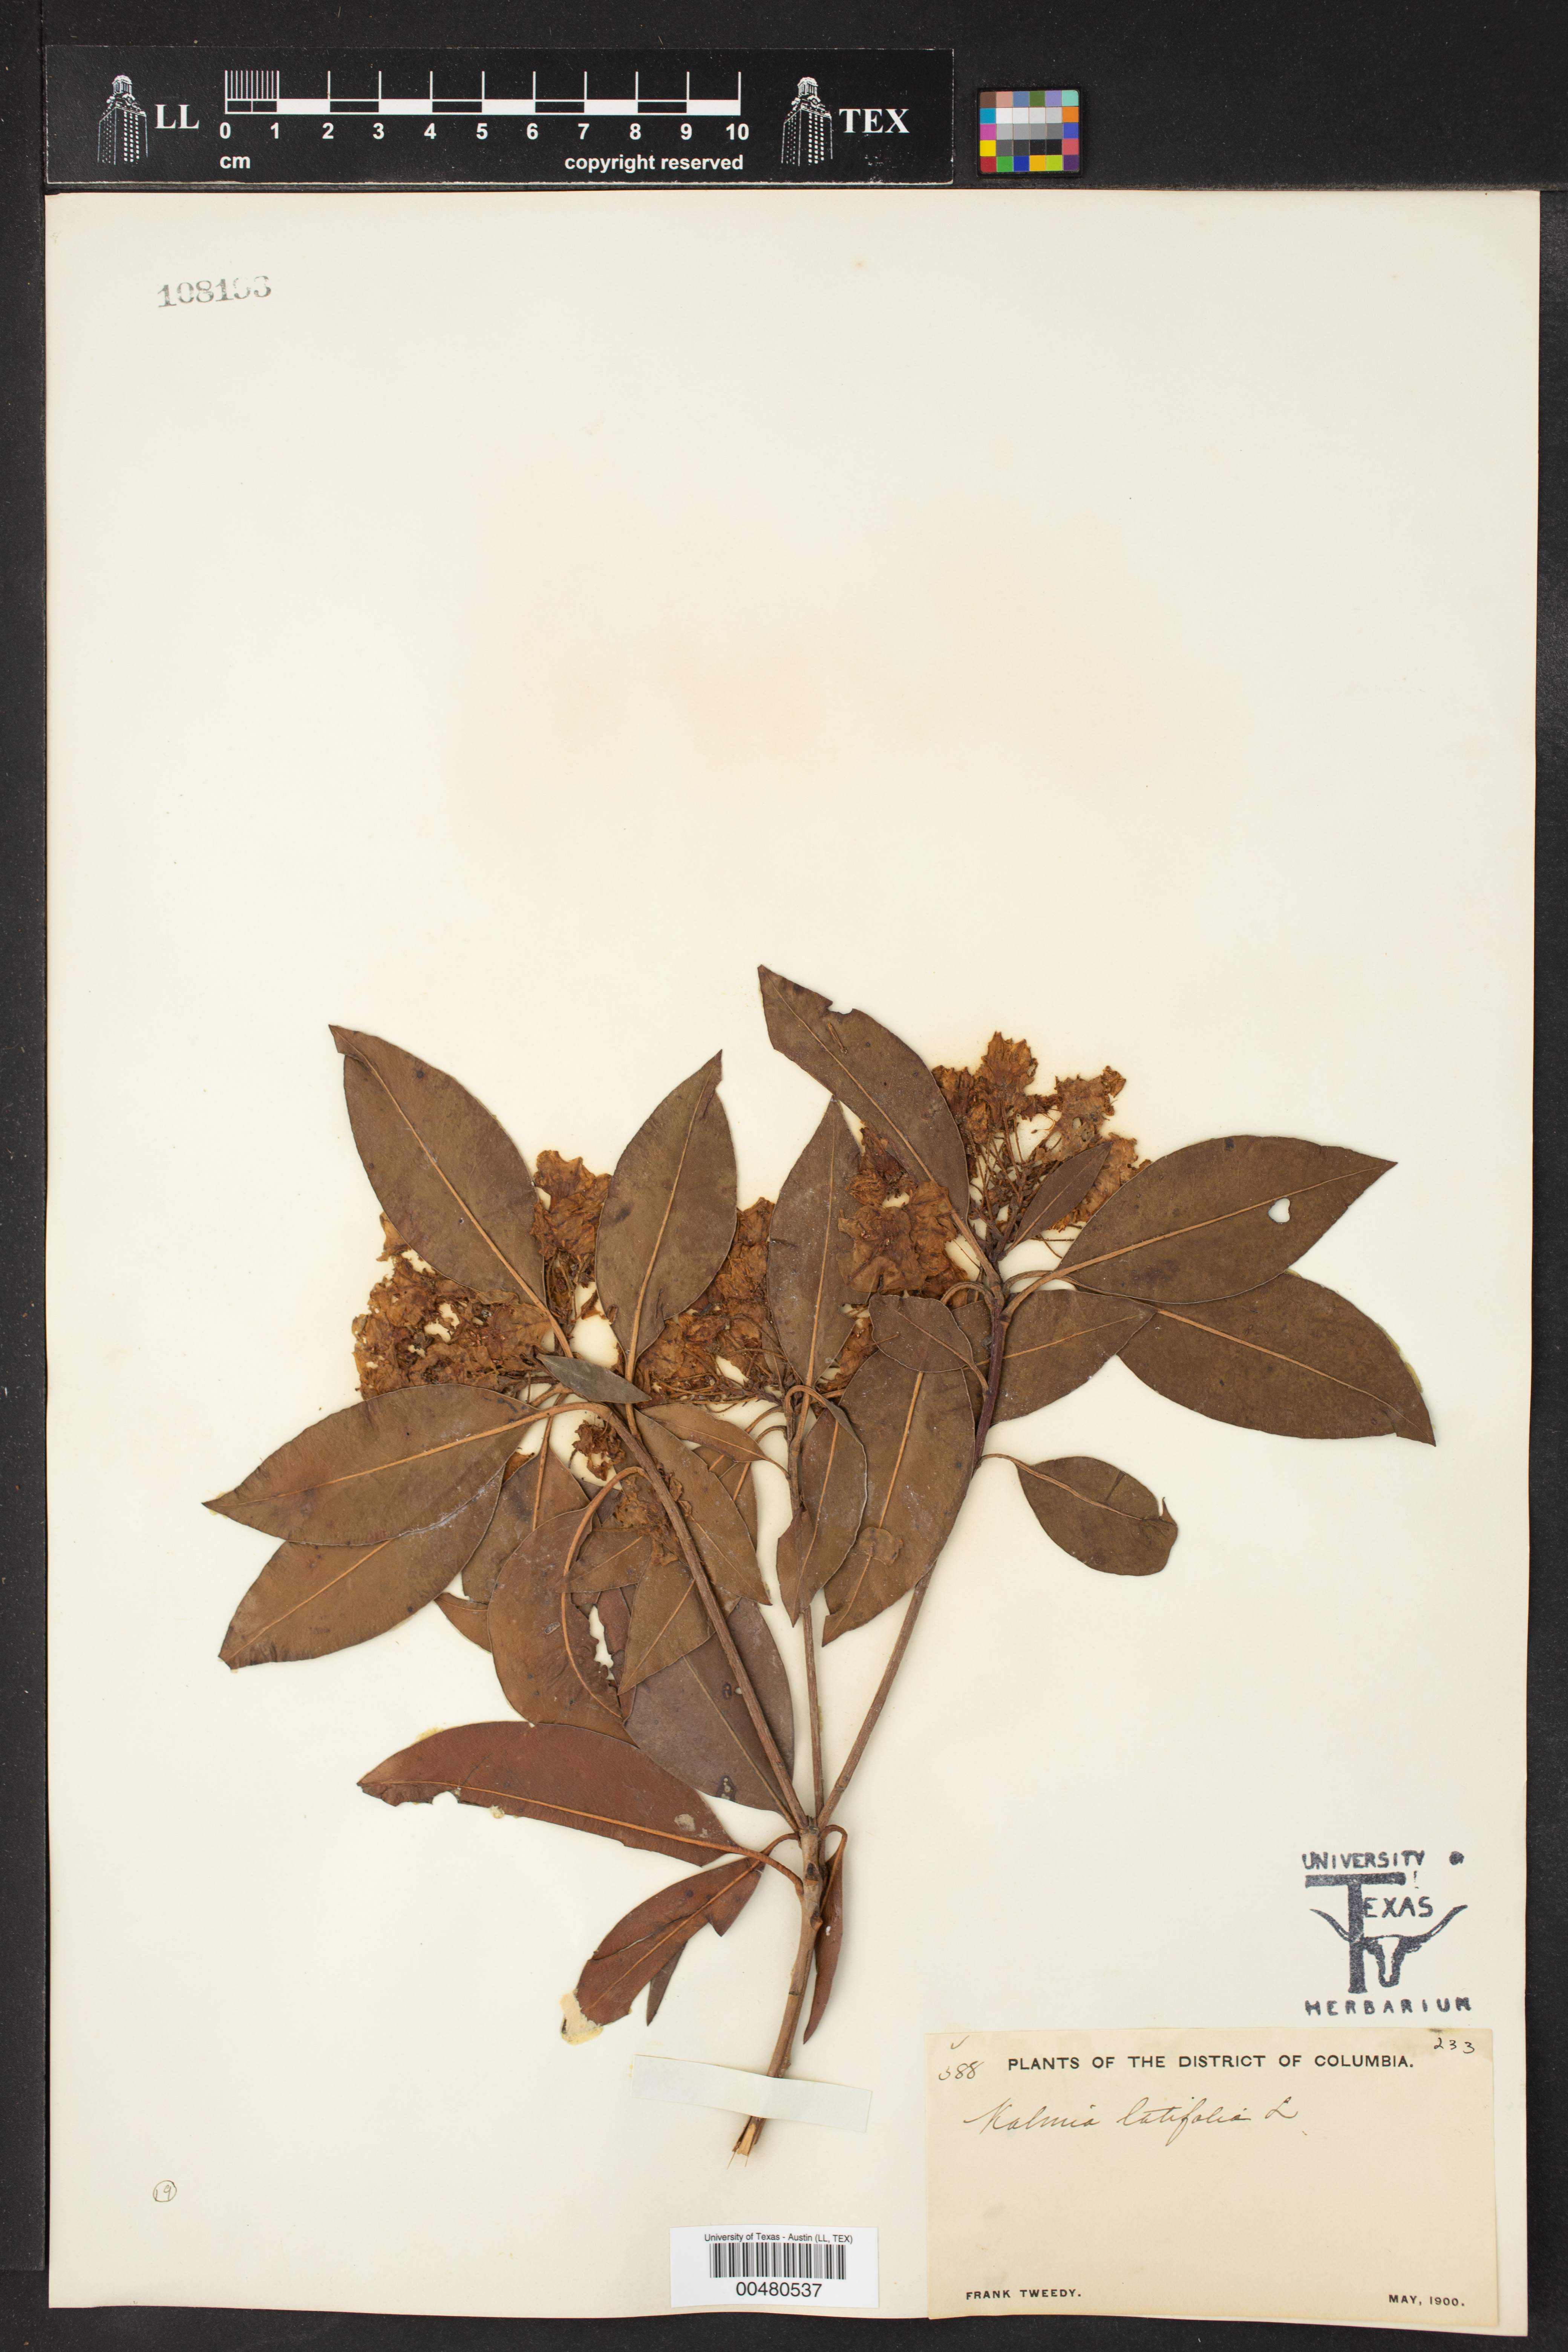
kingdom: Plantae
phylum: Tracheophyta
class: Magnoliopsida
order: Ericales
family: Ericaceae
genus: Kalmia
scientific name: Kalmia latifolia
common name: Mountain-laurel
